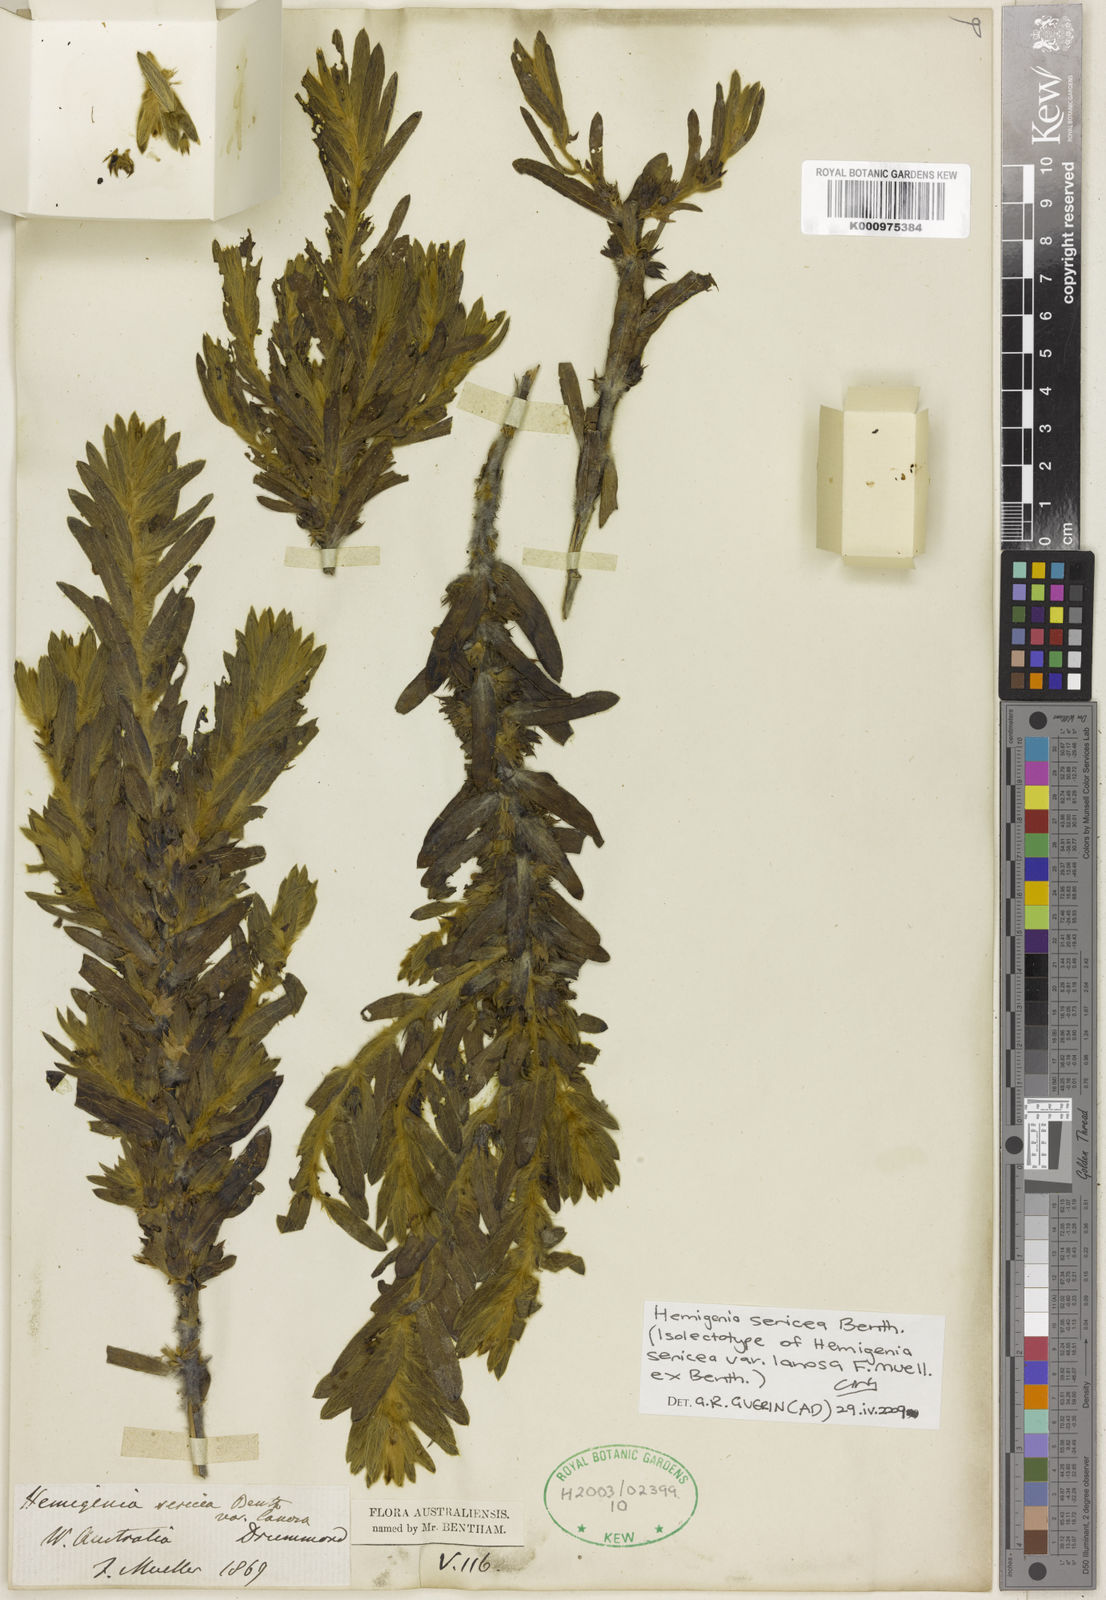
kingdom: Plantae
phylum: Tracheophyta
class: Magnoliopsida
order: Lamiales
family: Lamiaceae
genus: Hemigenia
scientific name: Hemigenia sericea
